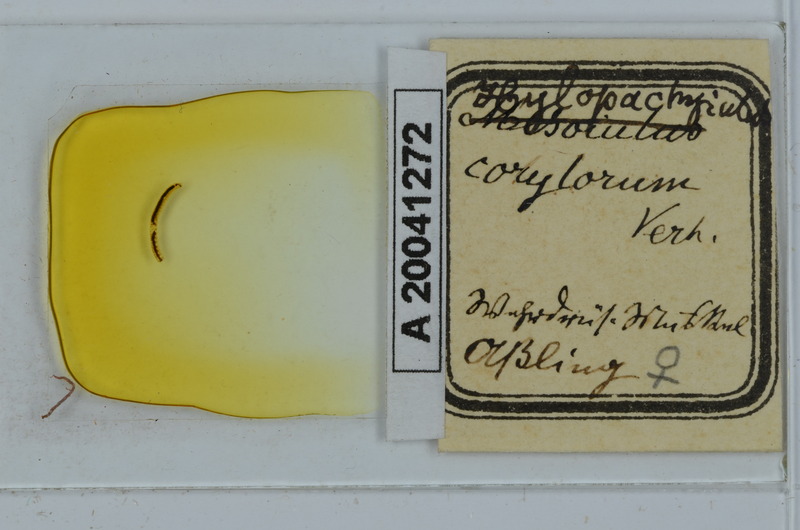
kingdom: Animalia
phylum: Arthropoda
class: Diplopoda
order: Julida
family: Julidae
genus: Hylopachyiulus
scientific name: Hylopachyiulus corylorum
